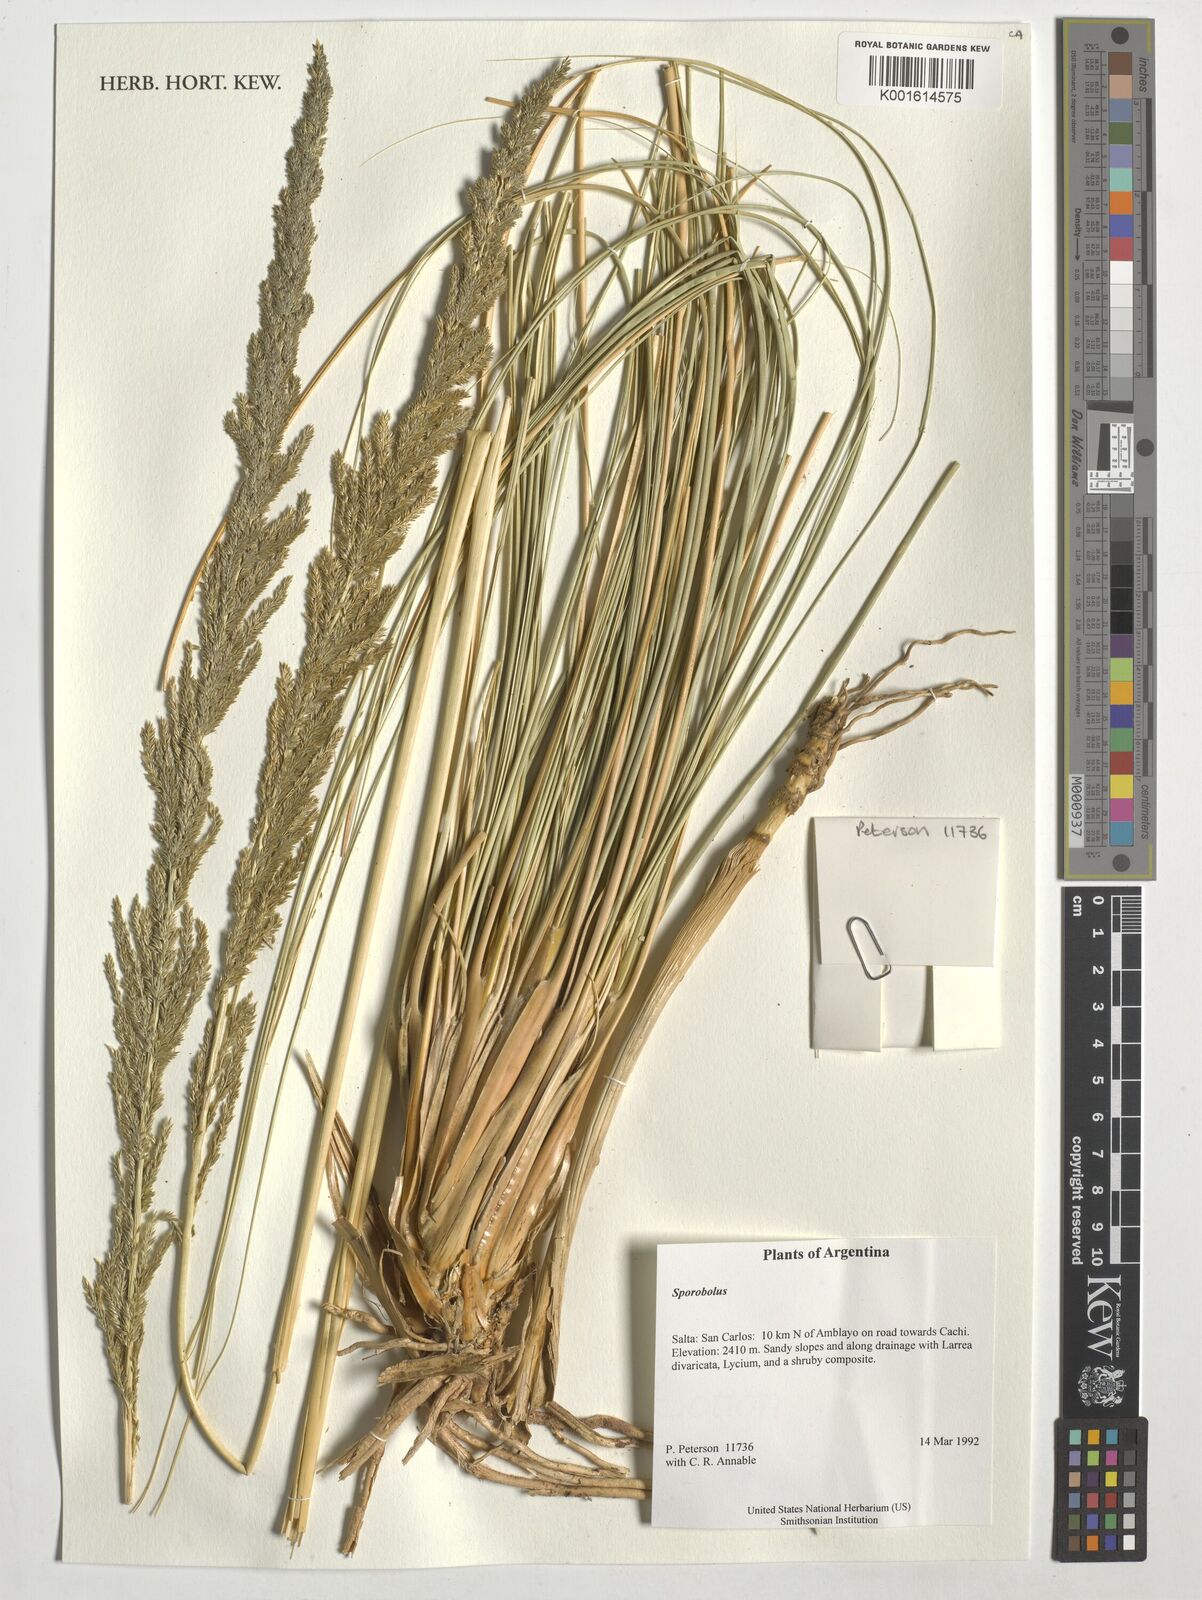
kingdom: Plantae
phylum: Tracheophyta
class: Liliopsida
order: Poales
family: Poaceae
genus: Sporobolus
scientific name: Sporobolus
